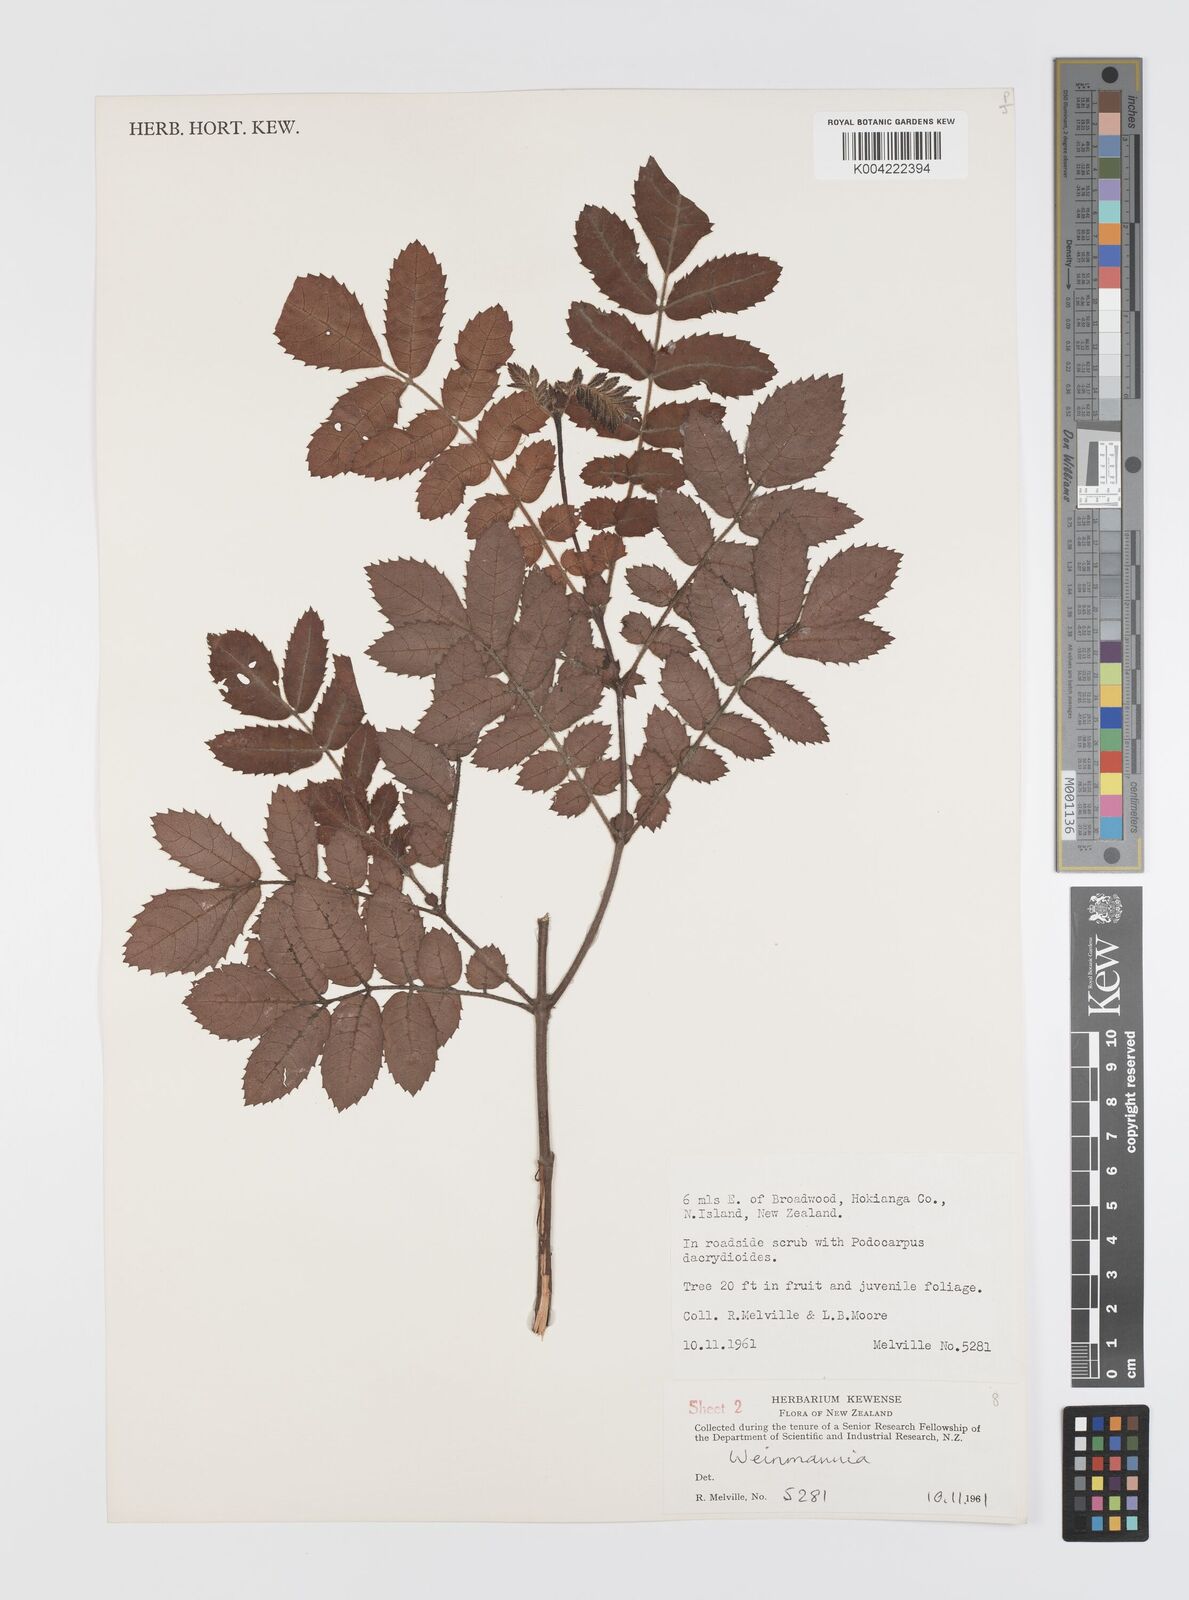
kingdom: Plantae
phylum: Tracheophyta
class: Magnoliopsida
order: Oxalidales
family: Cunoniaceae
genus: Weinmannia
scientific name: Weinmannia
